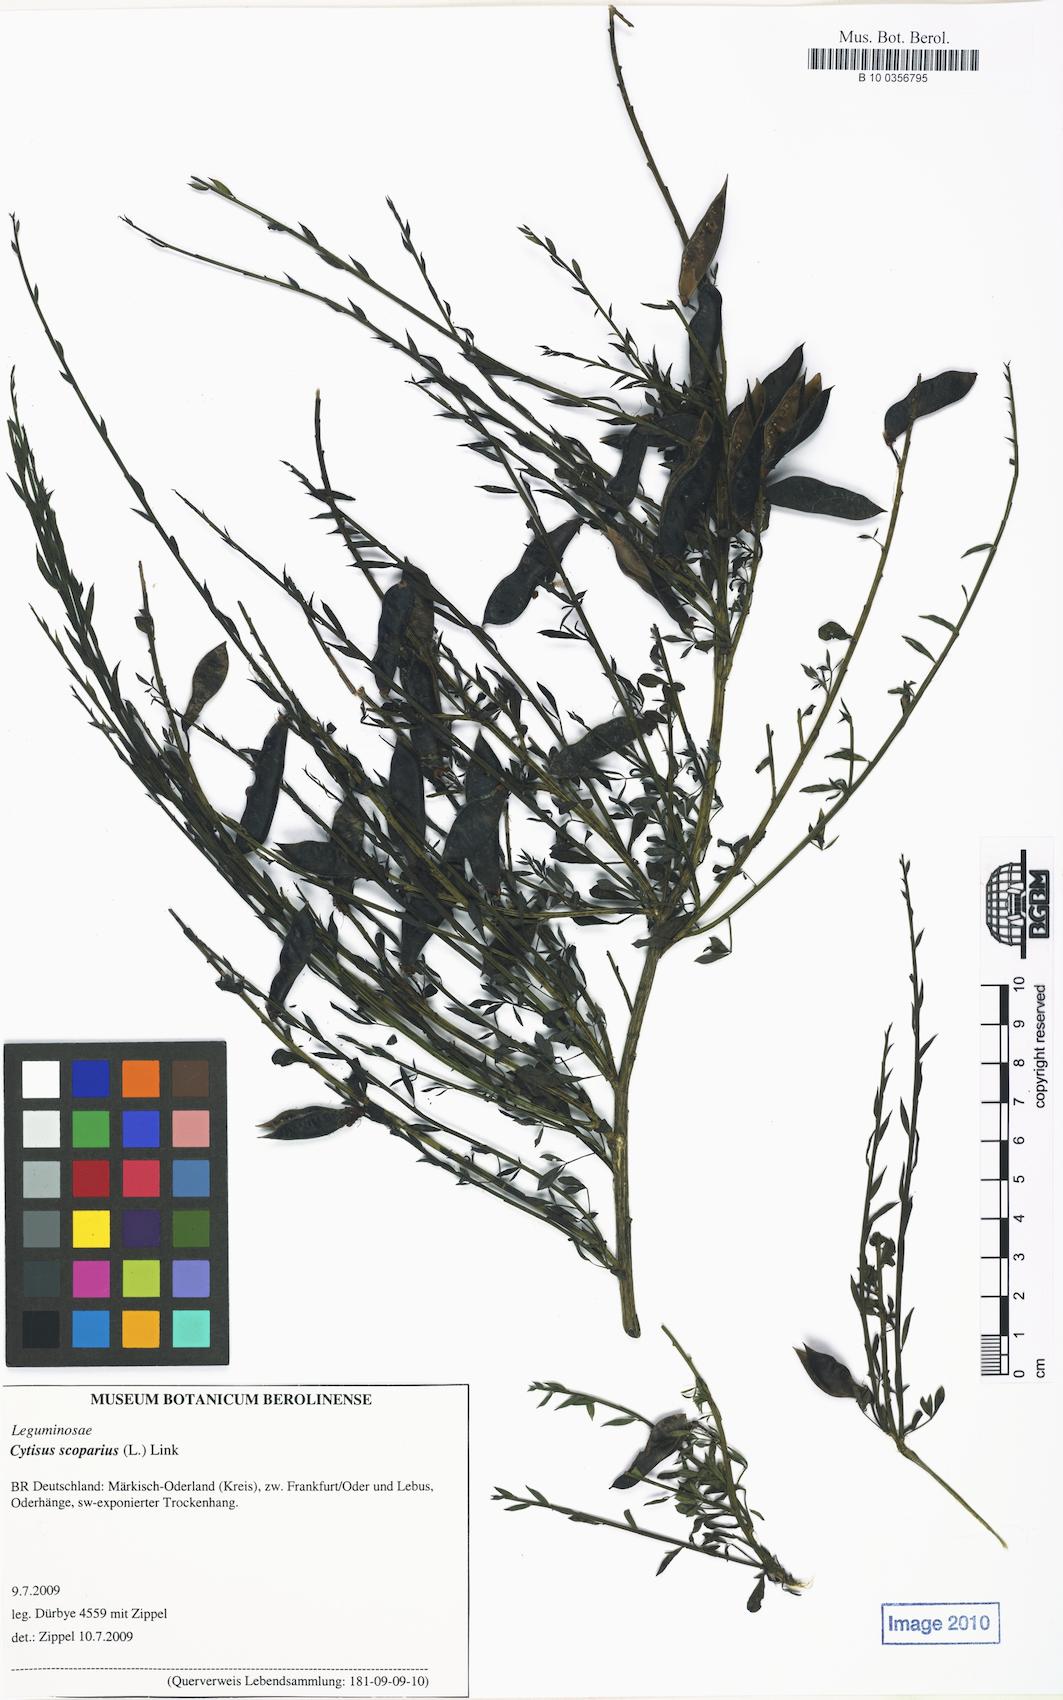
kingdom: Plantae
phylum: Tracheophyta
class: Magnoliopsida
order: Fabales
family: Fabaceae
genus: Cytisus
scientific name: Cytisus scoparius
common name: Scotch broom
